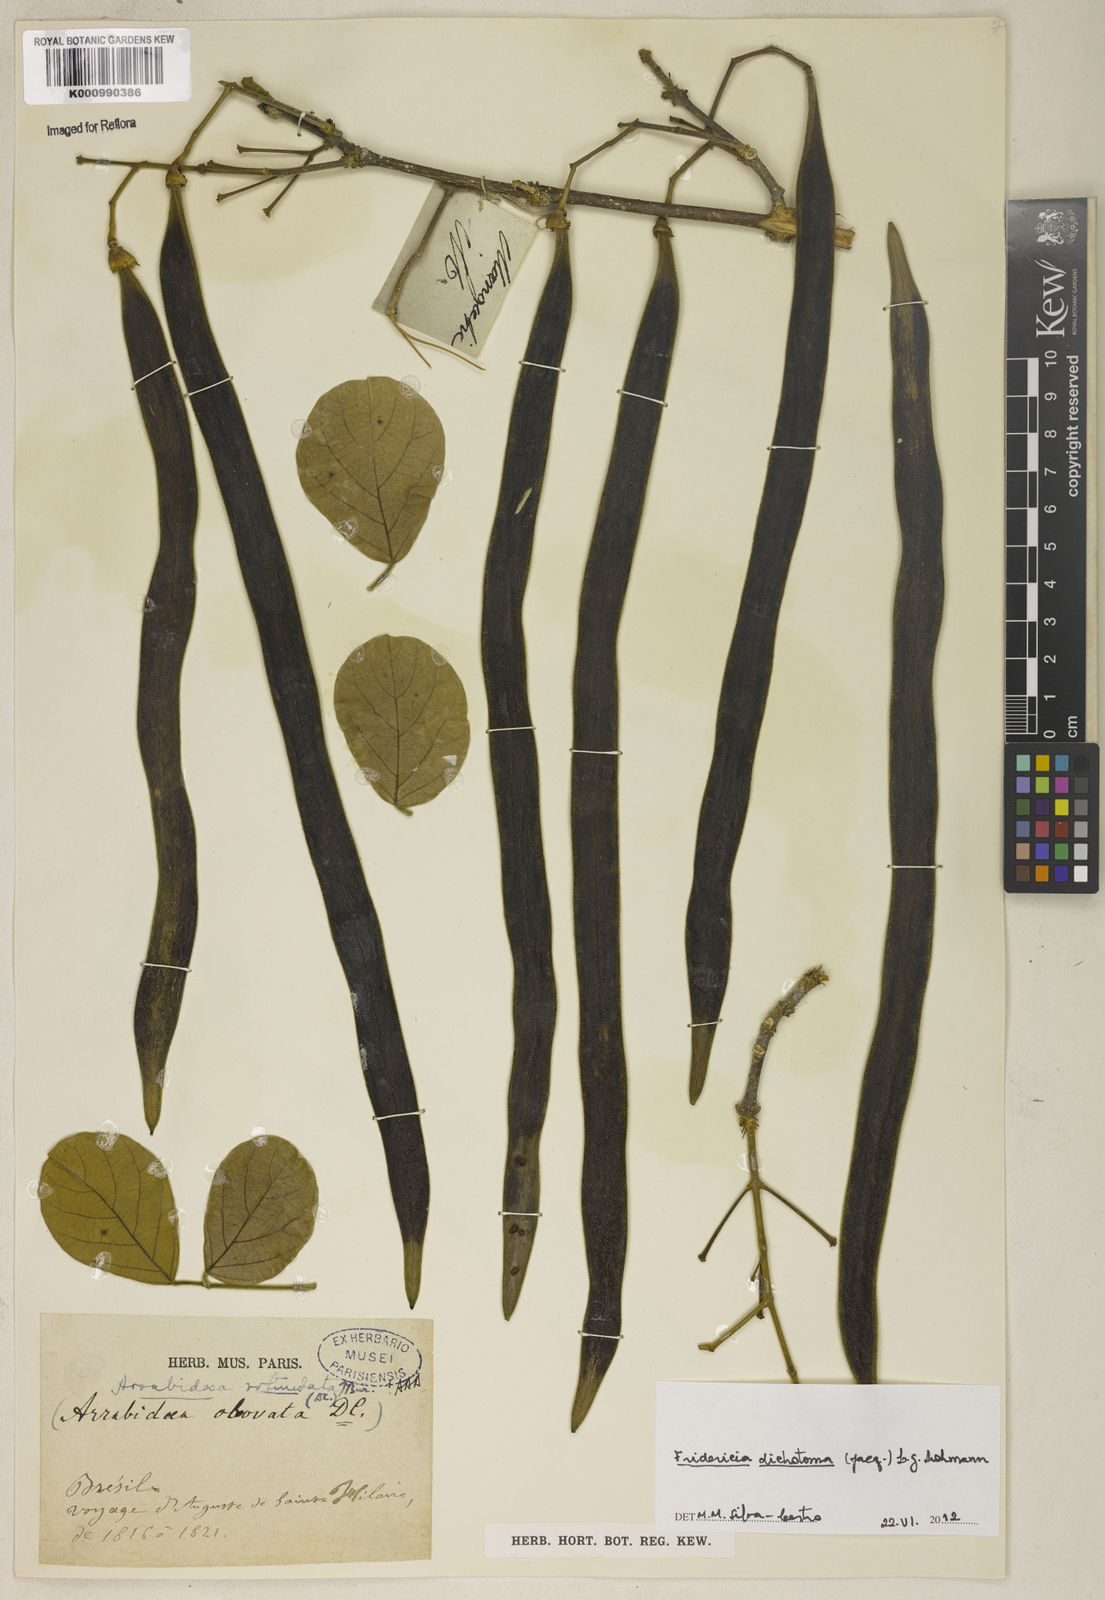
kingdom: Plantae
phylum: Tracheophyta
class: Magnoliopsida
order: Lamiales
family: Bignoniaceae
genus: Tanaecium
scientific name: Tanaecium dichotomum
